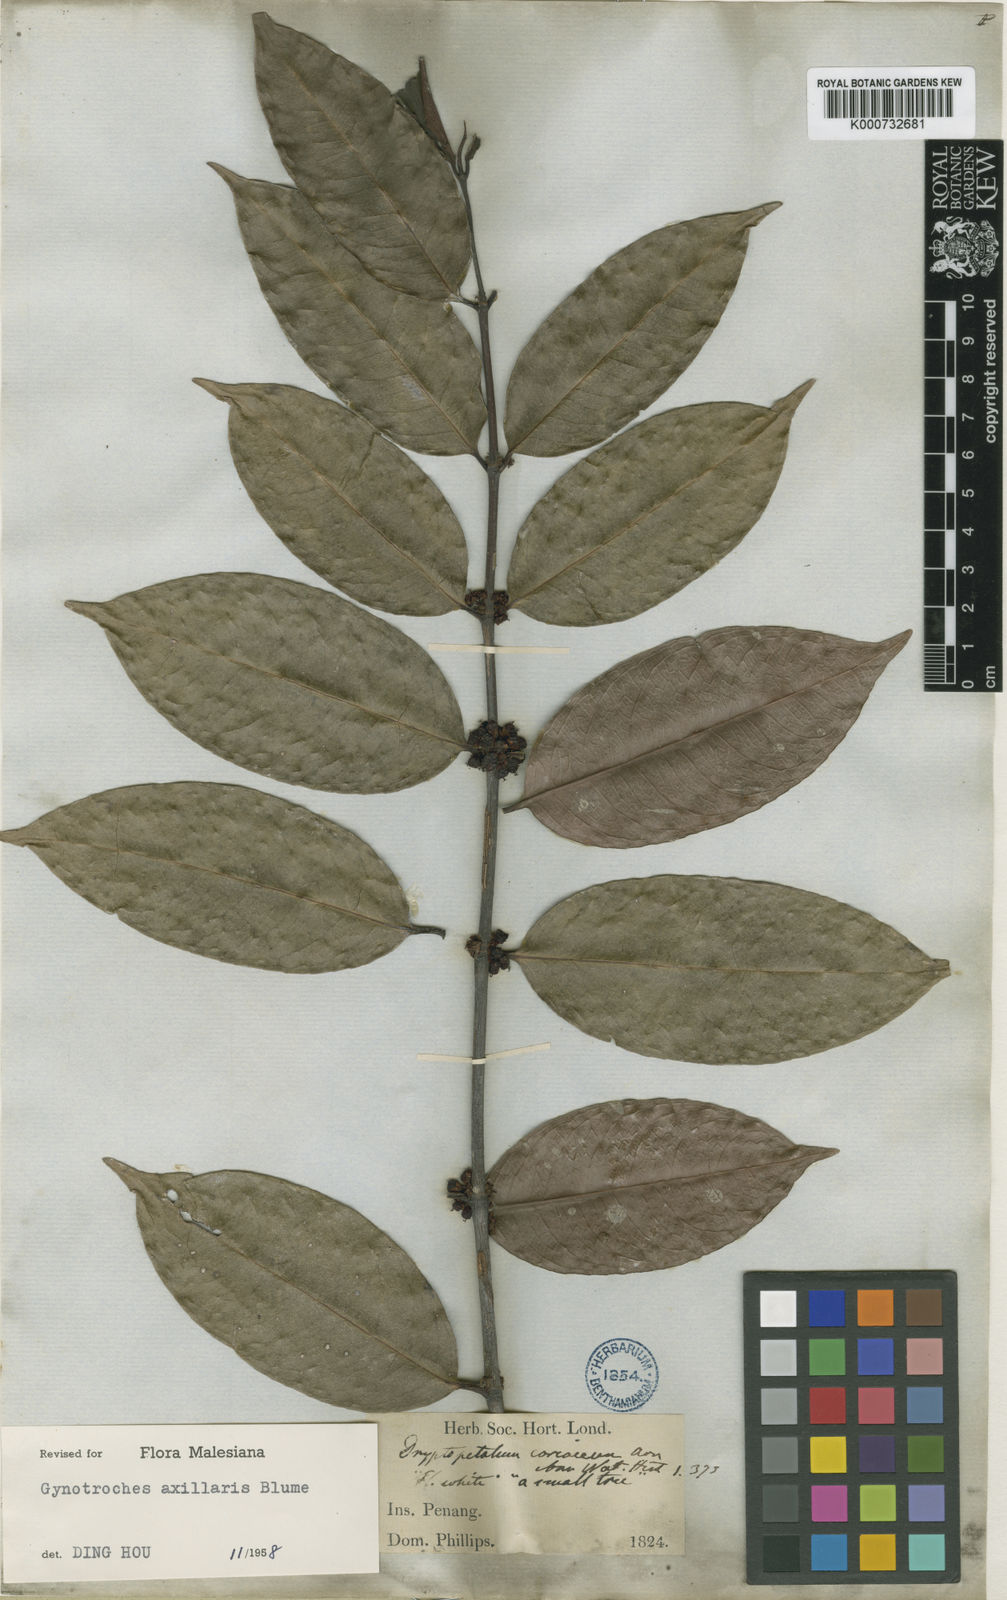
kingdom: Plantae
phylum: Tracheophyta
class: Magnoliopsida
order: Malpighiales
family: Rhizophoraceae
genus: Gynotroches
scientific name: Gynotroches axillaris
